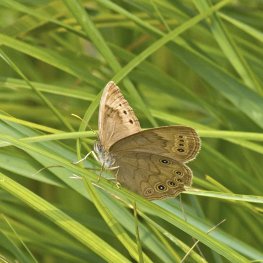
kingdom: Animalia
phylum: Arthropoda
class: Insecta
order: Lepidoptera
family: Nymphalidae
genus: Lethe
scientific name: Lethe eurydice
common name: Eyed Brown
